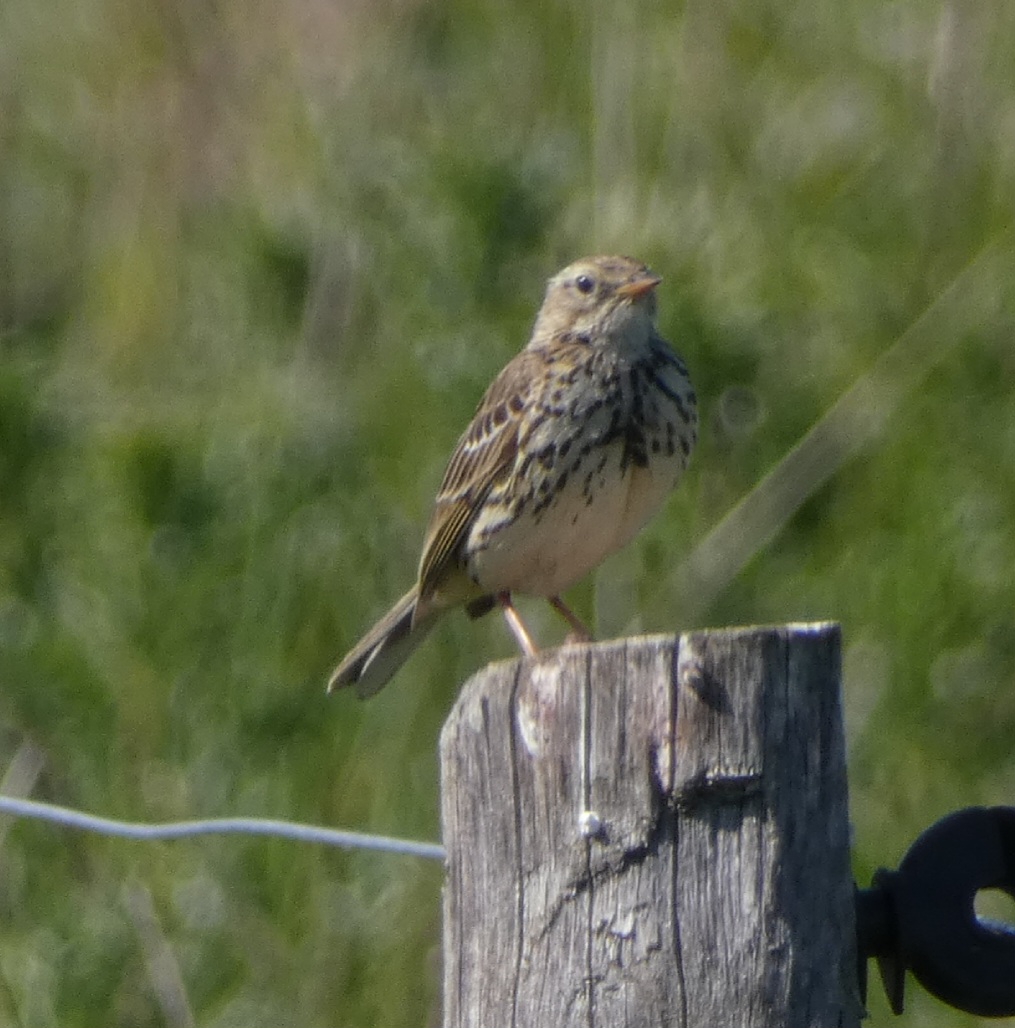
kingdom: Animalia
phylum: Chordata
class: Aves
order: Passeriformes
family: Motacillidae
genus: Anthus
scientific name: Anthus pratensis
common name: Engpiber
